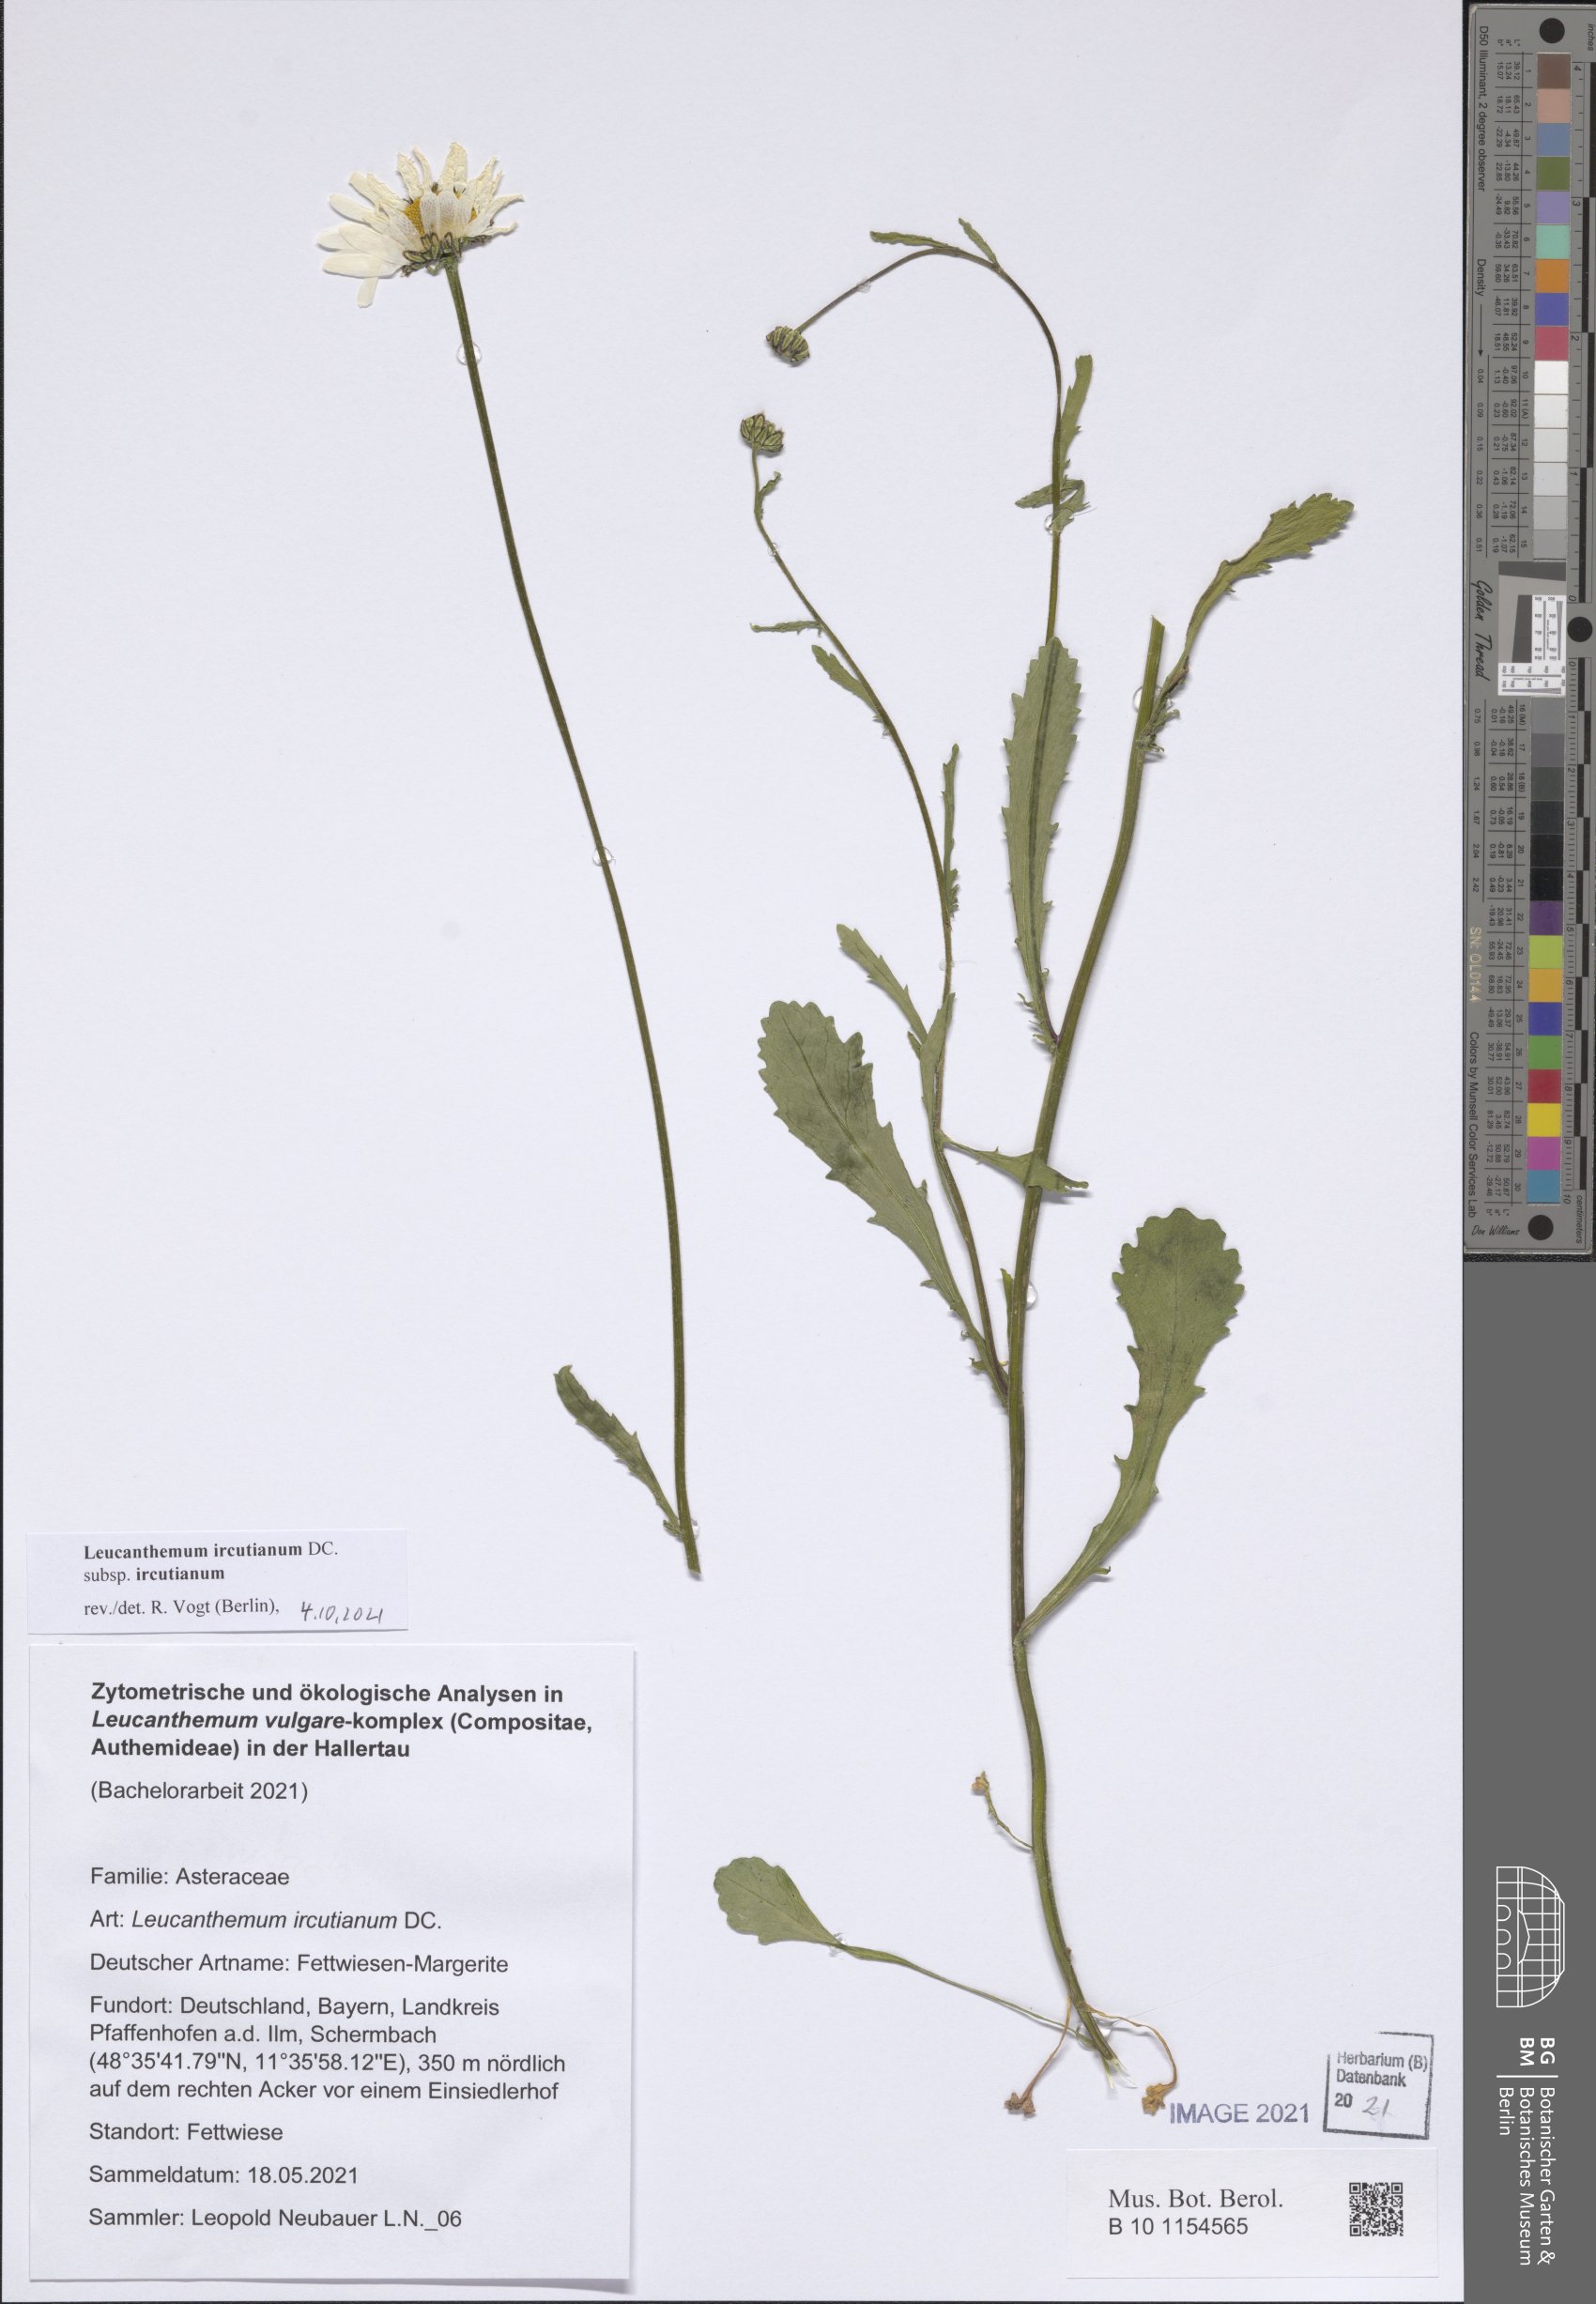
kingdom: Plantae
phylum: Tracheophyta
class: Magnoliopsida
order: Asterales
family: Asteraceae
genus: Leucanthemum
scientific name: Leucanthemum ircutianum
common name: Daisy
